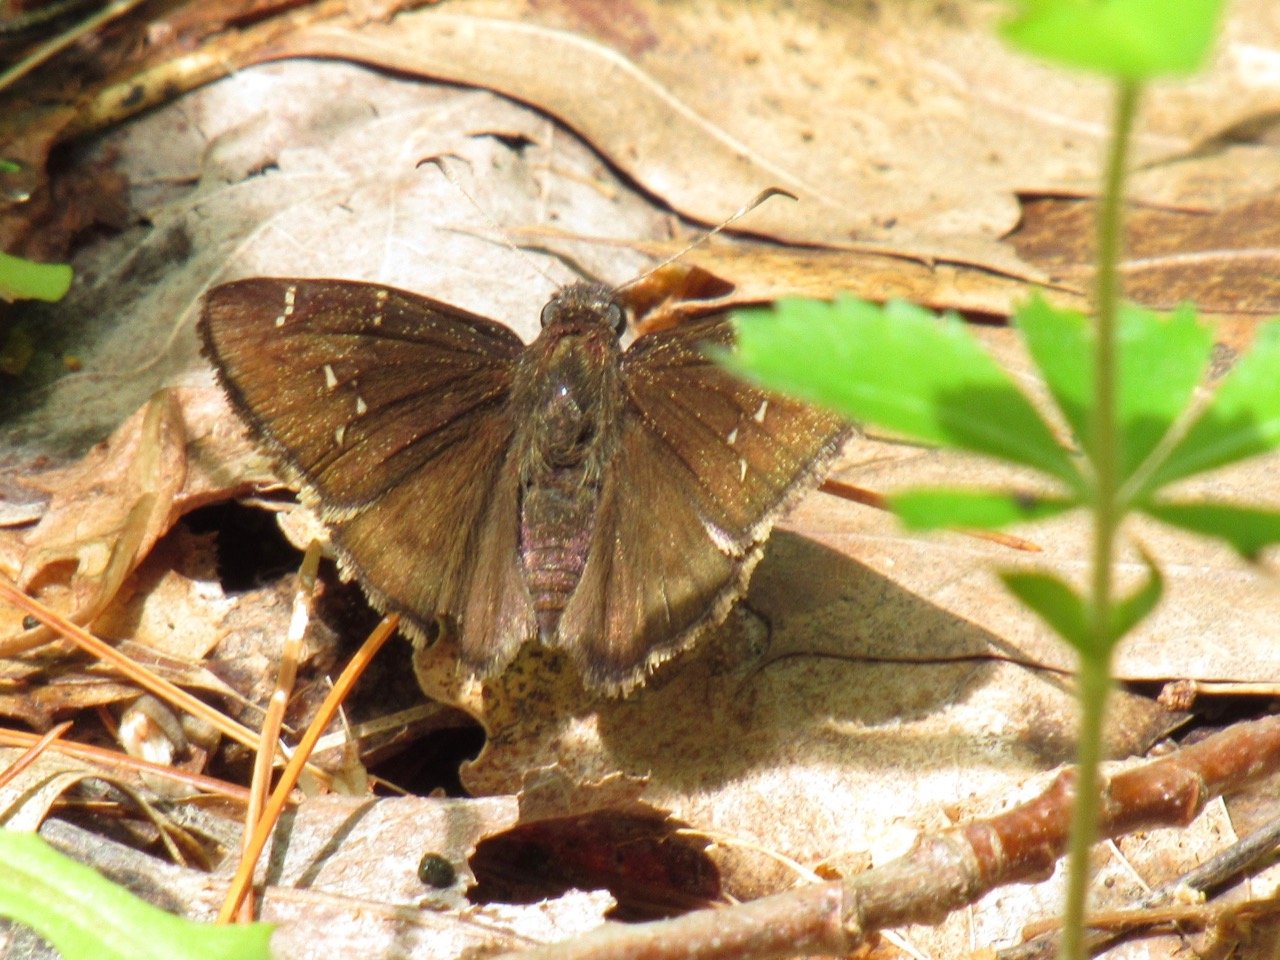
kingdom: Animalia
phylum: Arthropoda
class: Insecta
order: Lepidoptera
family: Hesperiidae
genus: Autochton
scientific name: Autochton
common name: Northern Cloudywing
